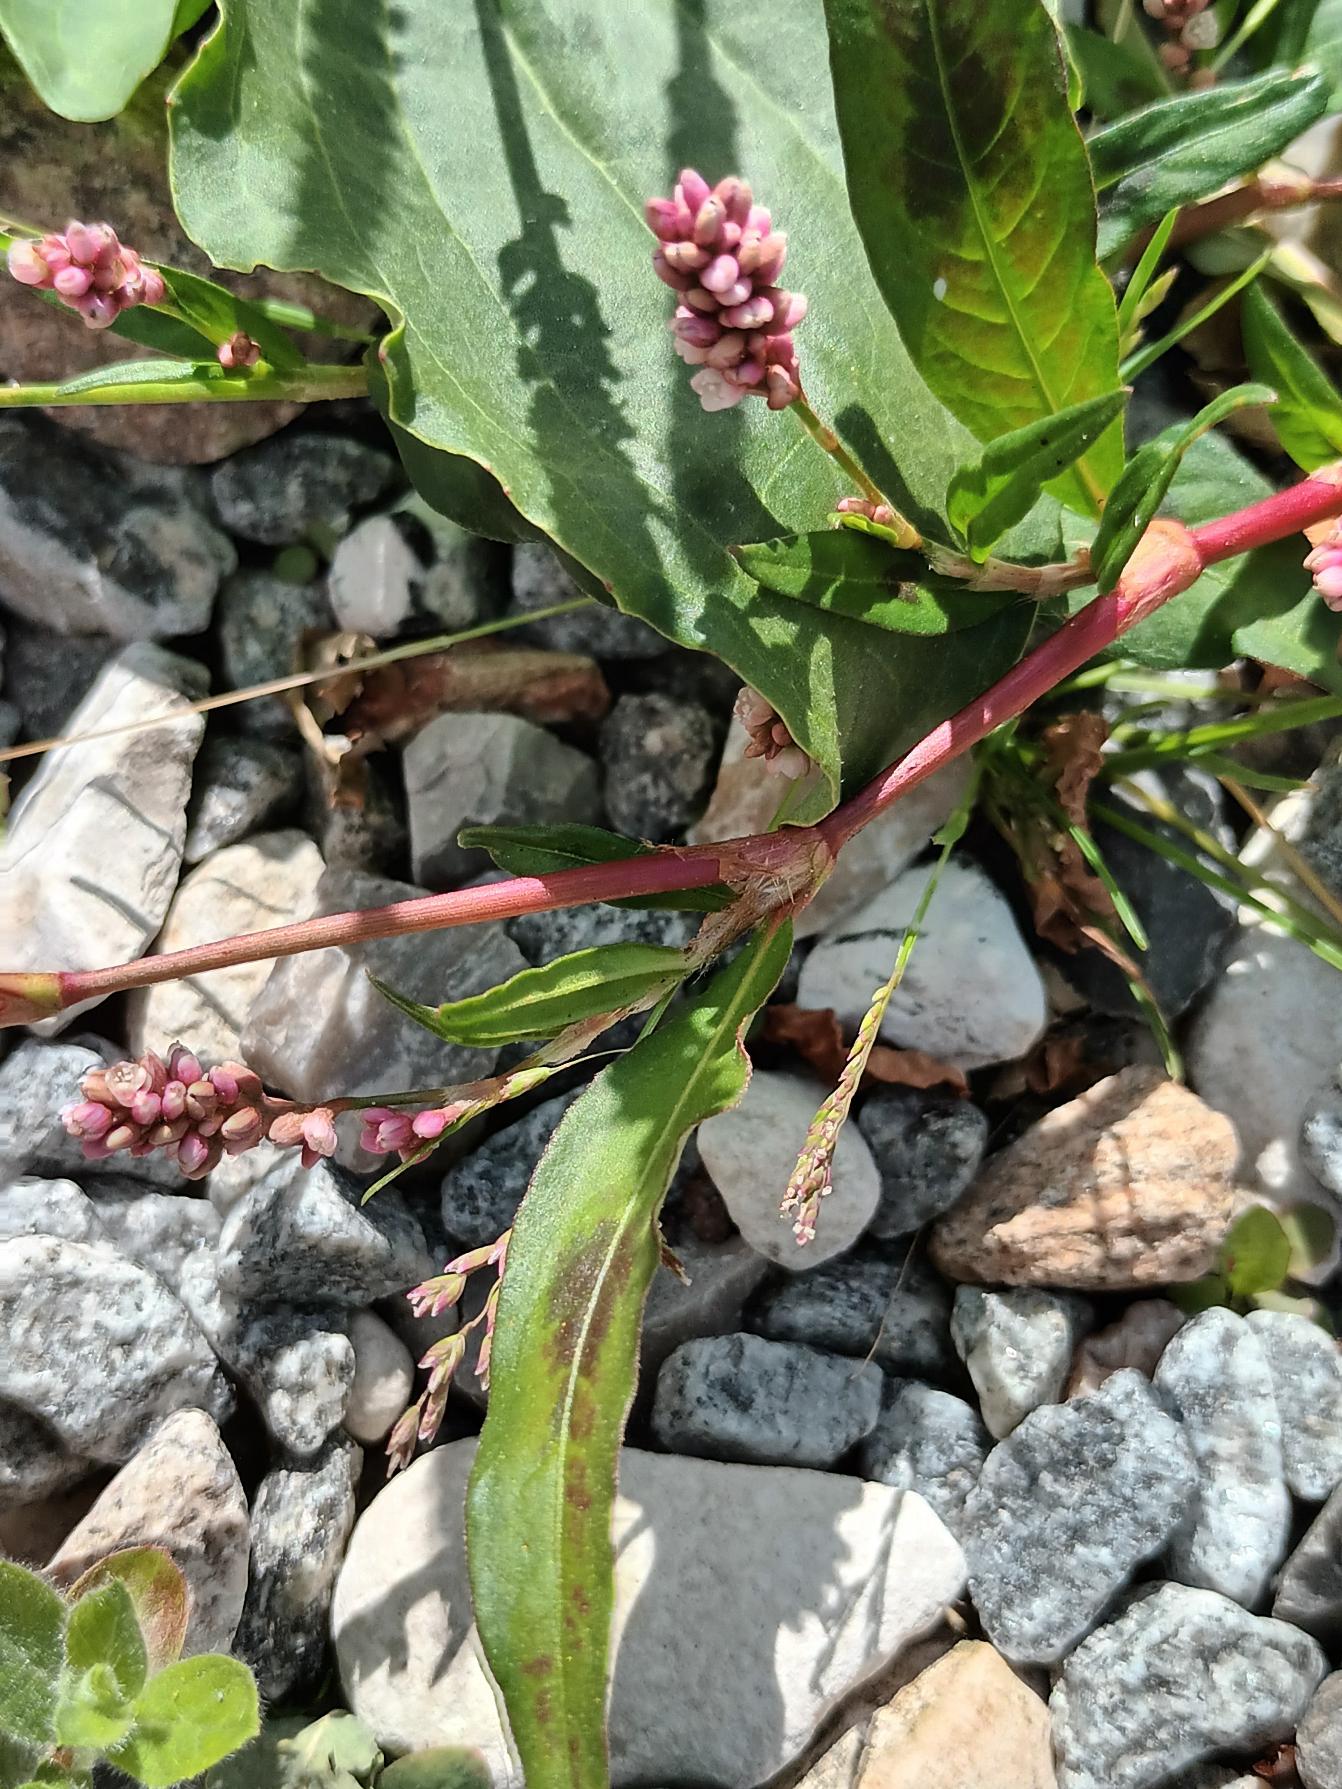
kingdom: Plantae
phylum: Tracheophyta
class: Magnoliopsida
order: Caryophyllales
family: Polygonaceae
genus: Persicaria
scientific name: Persicaria maculosa
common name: Fersken-pileurt
